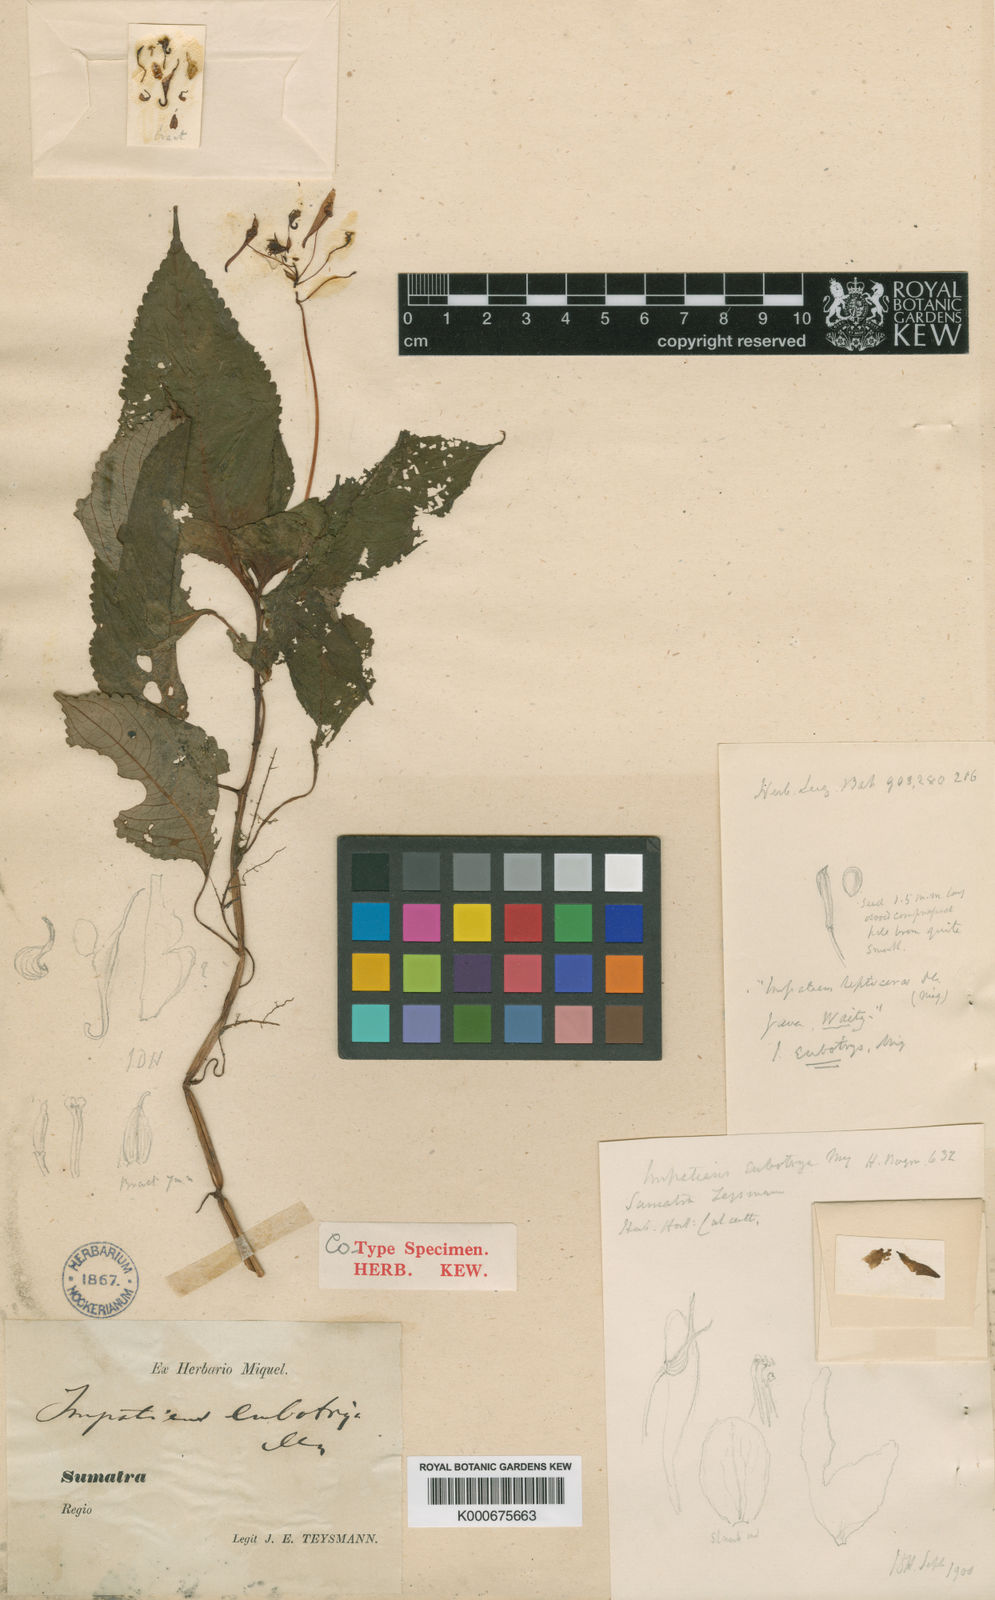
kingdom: Plantae
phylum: Tracheophyta
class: Magnoliopsida
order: Ericales
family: Balsaminaceae
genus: Impatiens
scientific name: Impatiens eubotrya
